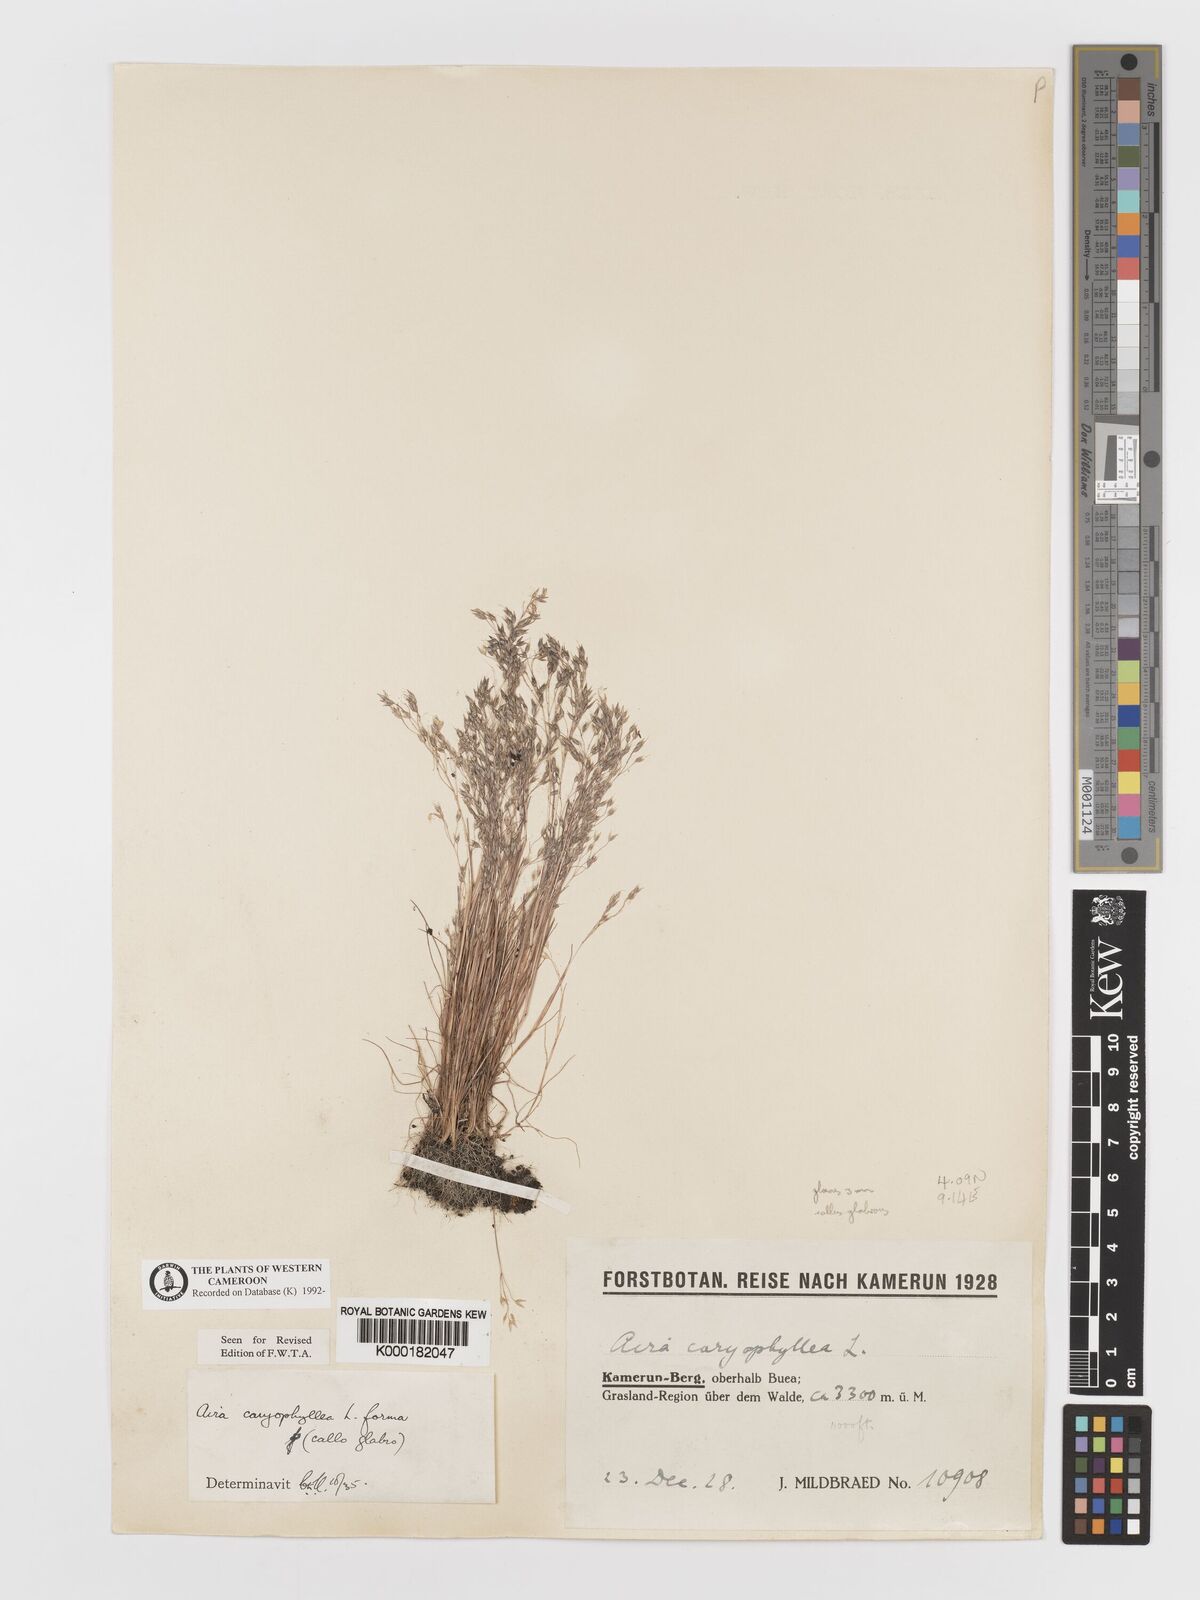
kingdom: Plantae
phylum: Tracheophyta
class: Liliopsida
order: Poales
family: Poaceae
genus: Aira
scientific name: Aira caryophyllea
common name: Silver hairgrass
